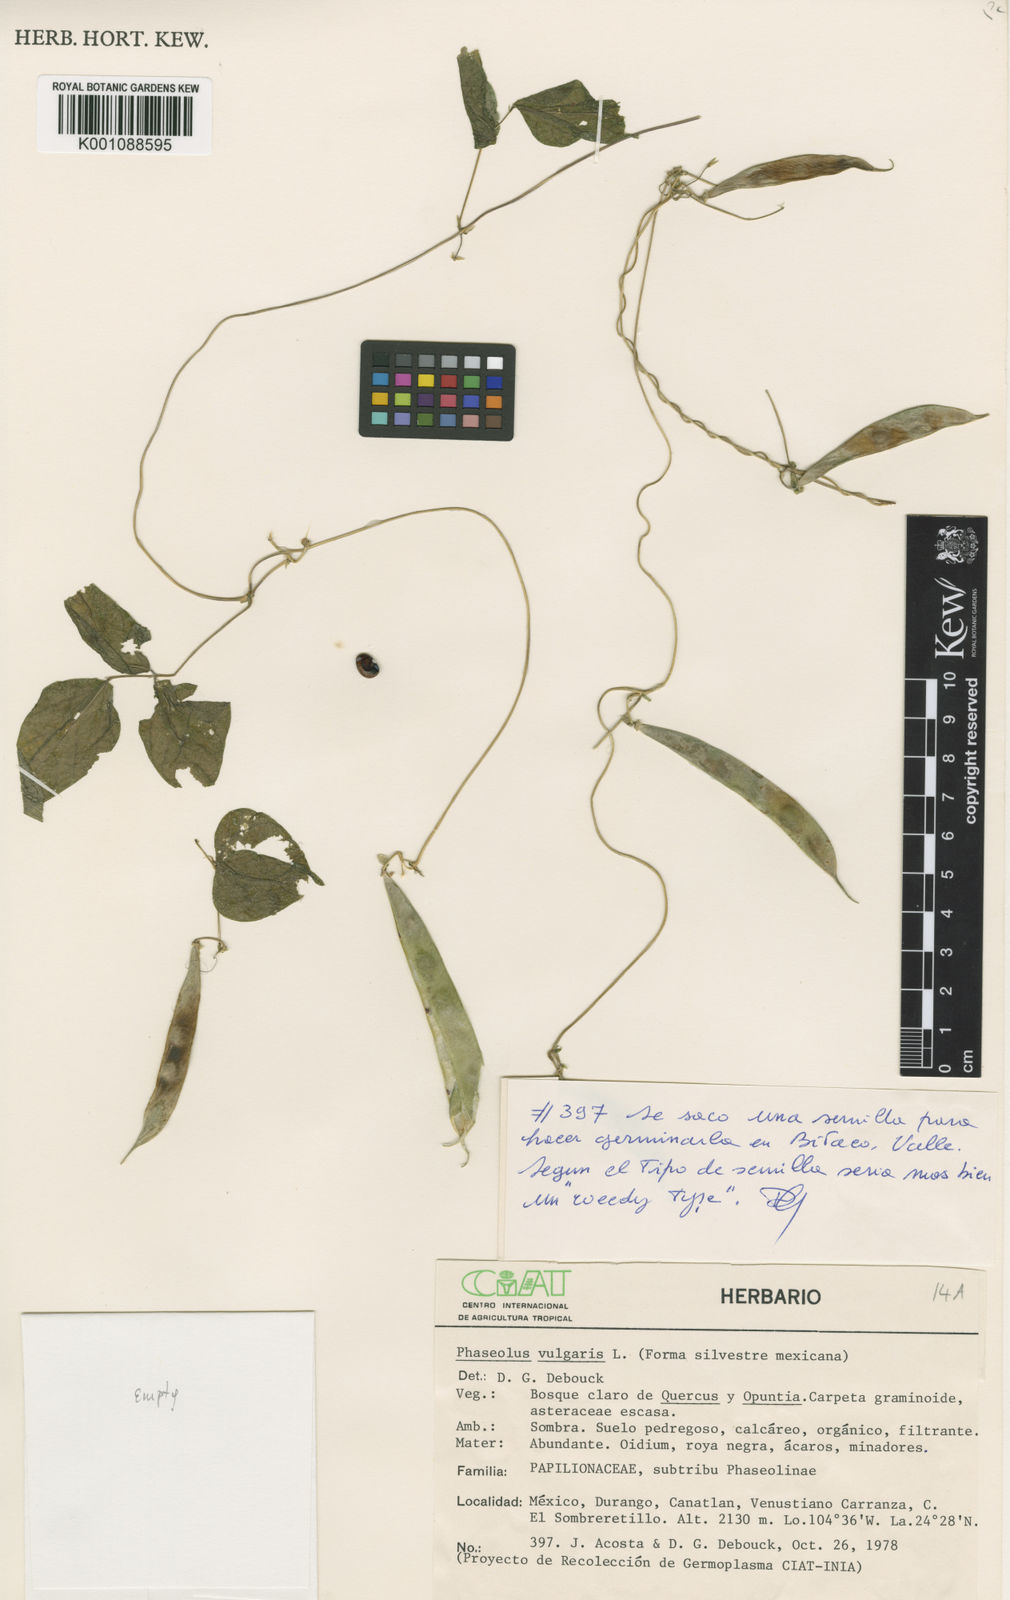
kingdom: Plantae
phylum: Tracheophyta
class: Magnoliopsida
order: Fabales
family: Fabaceae
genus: Phaseolus
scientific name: Phaseolus vulgaris
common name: Bean
